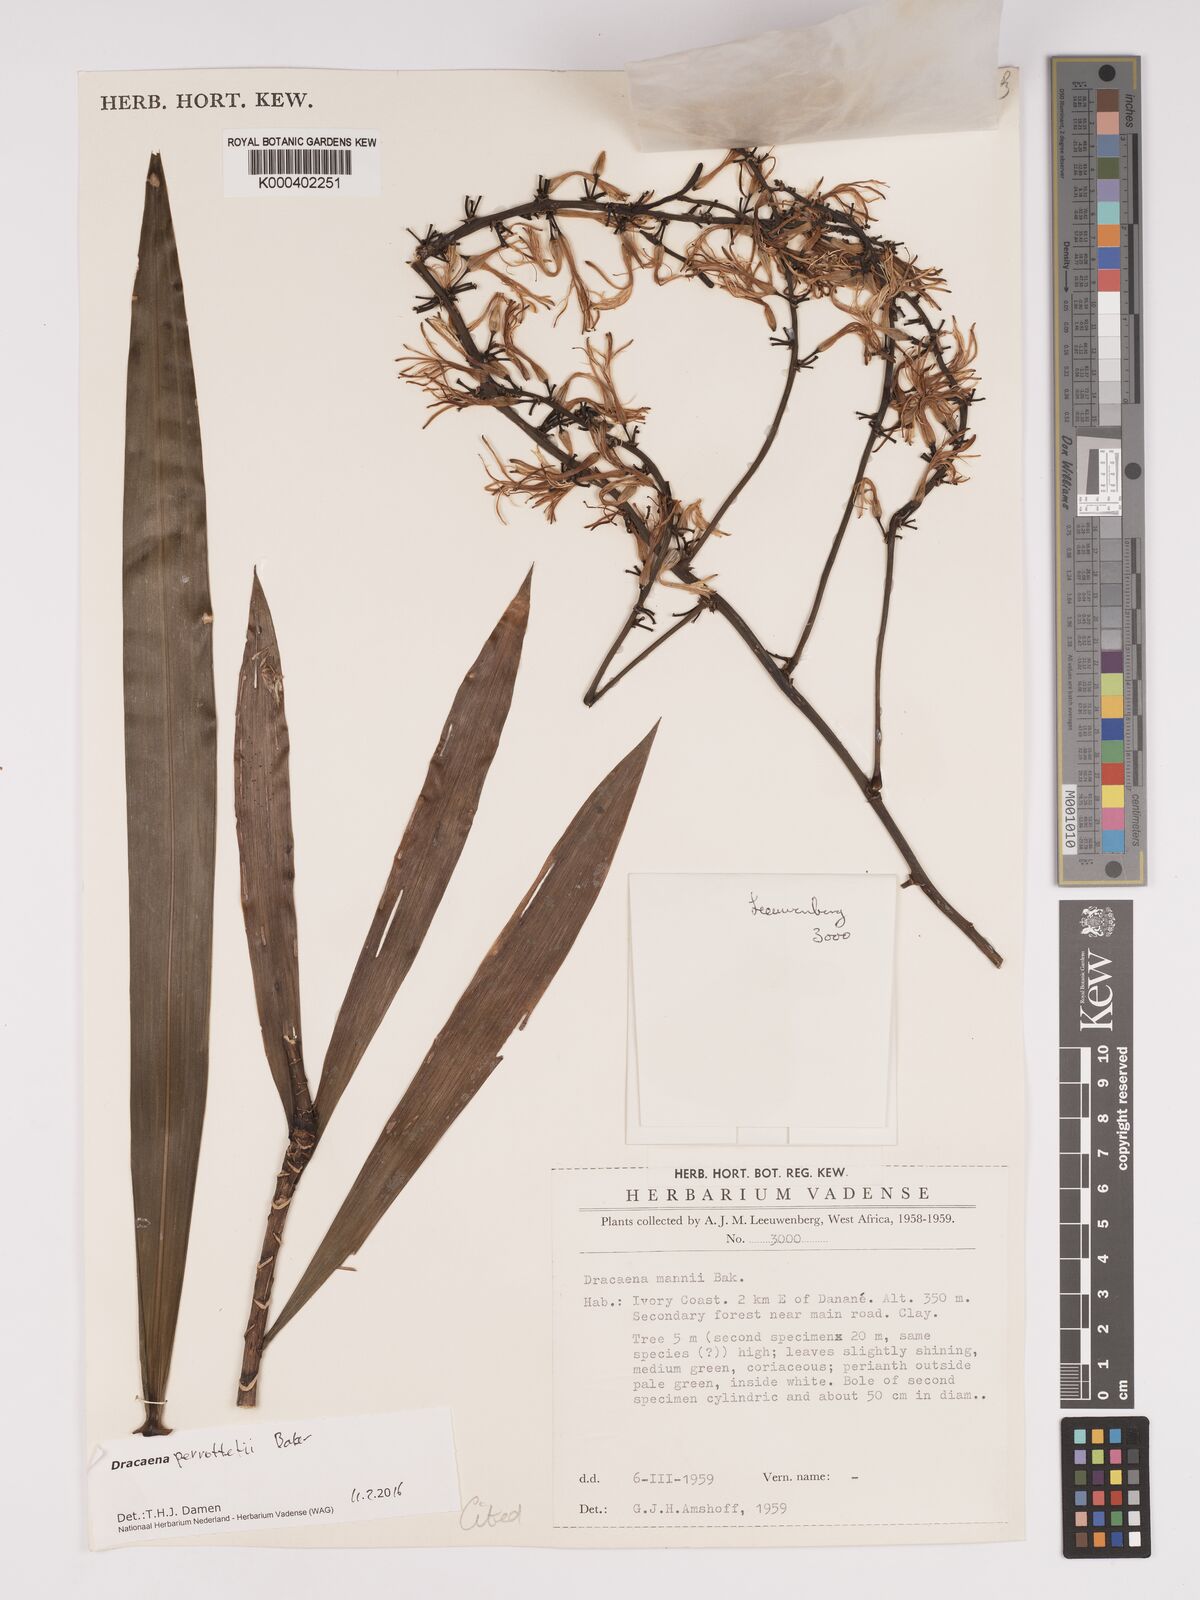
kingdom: Plantae
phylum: Tracheophyta
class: Liliopsida
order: Asparagales
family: Asparagaceae
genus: Dracaena
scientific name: Dracaena perrottetii
